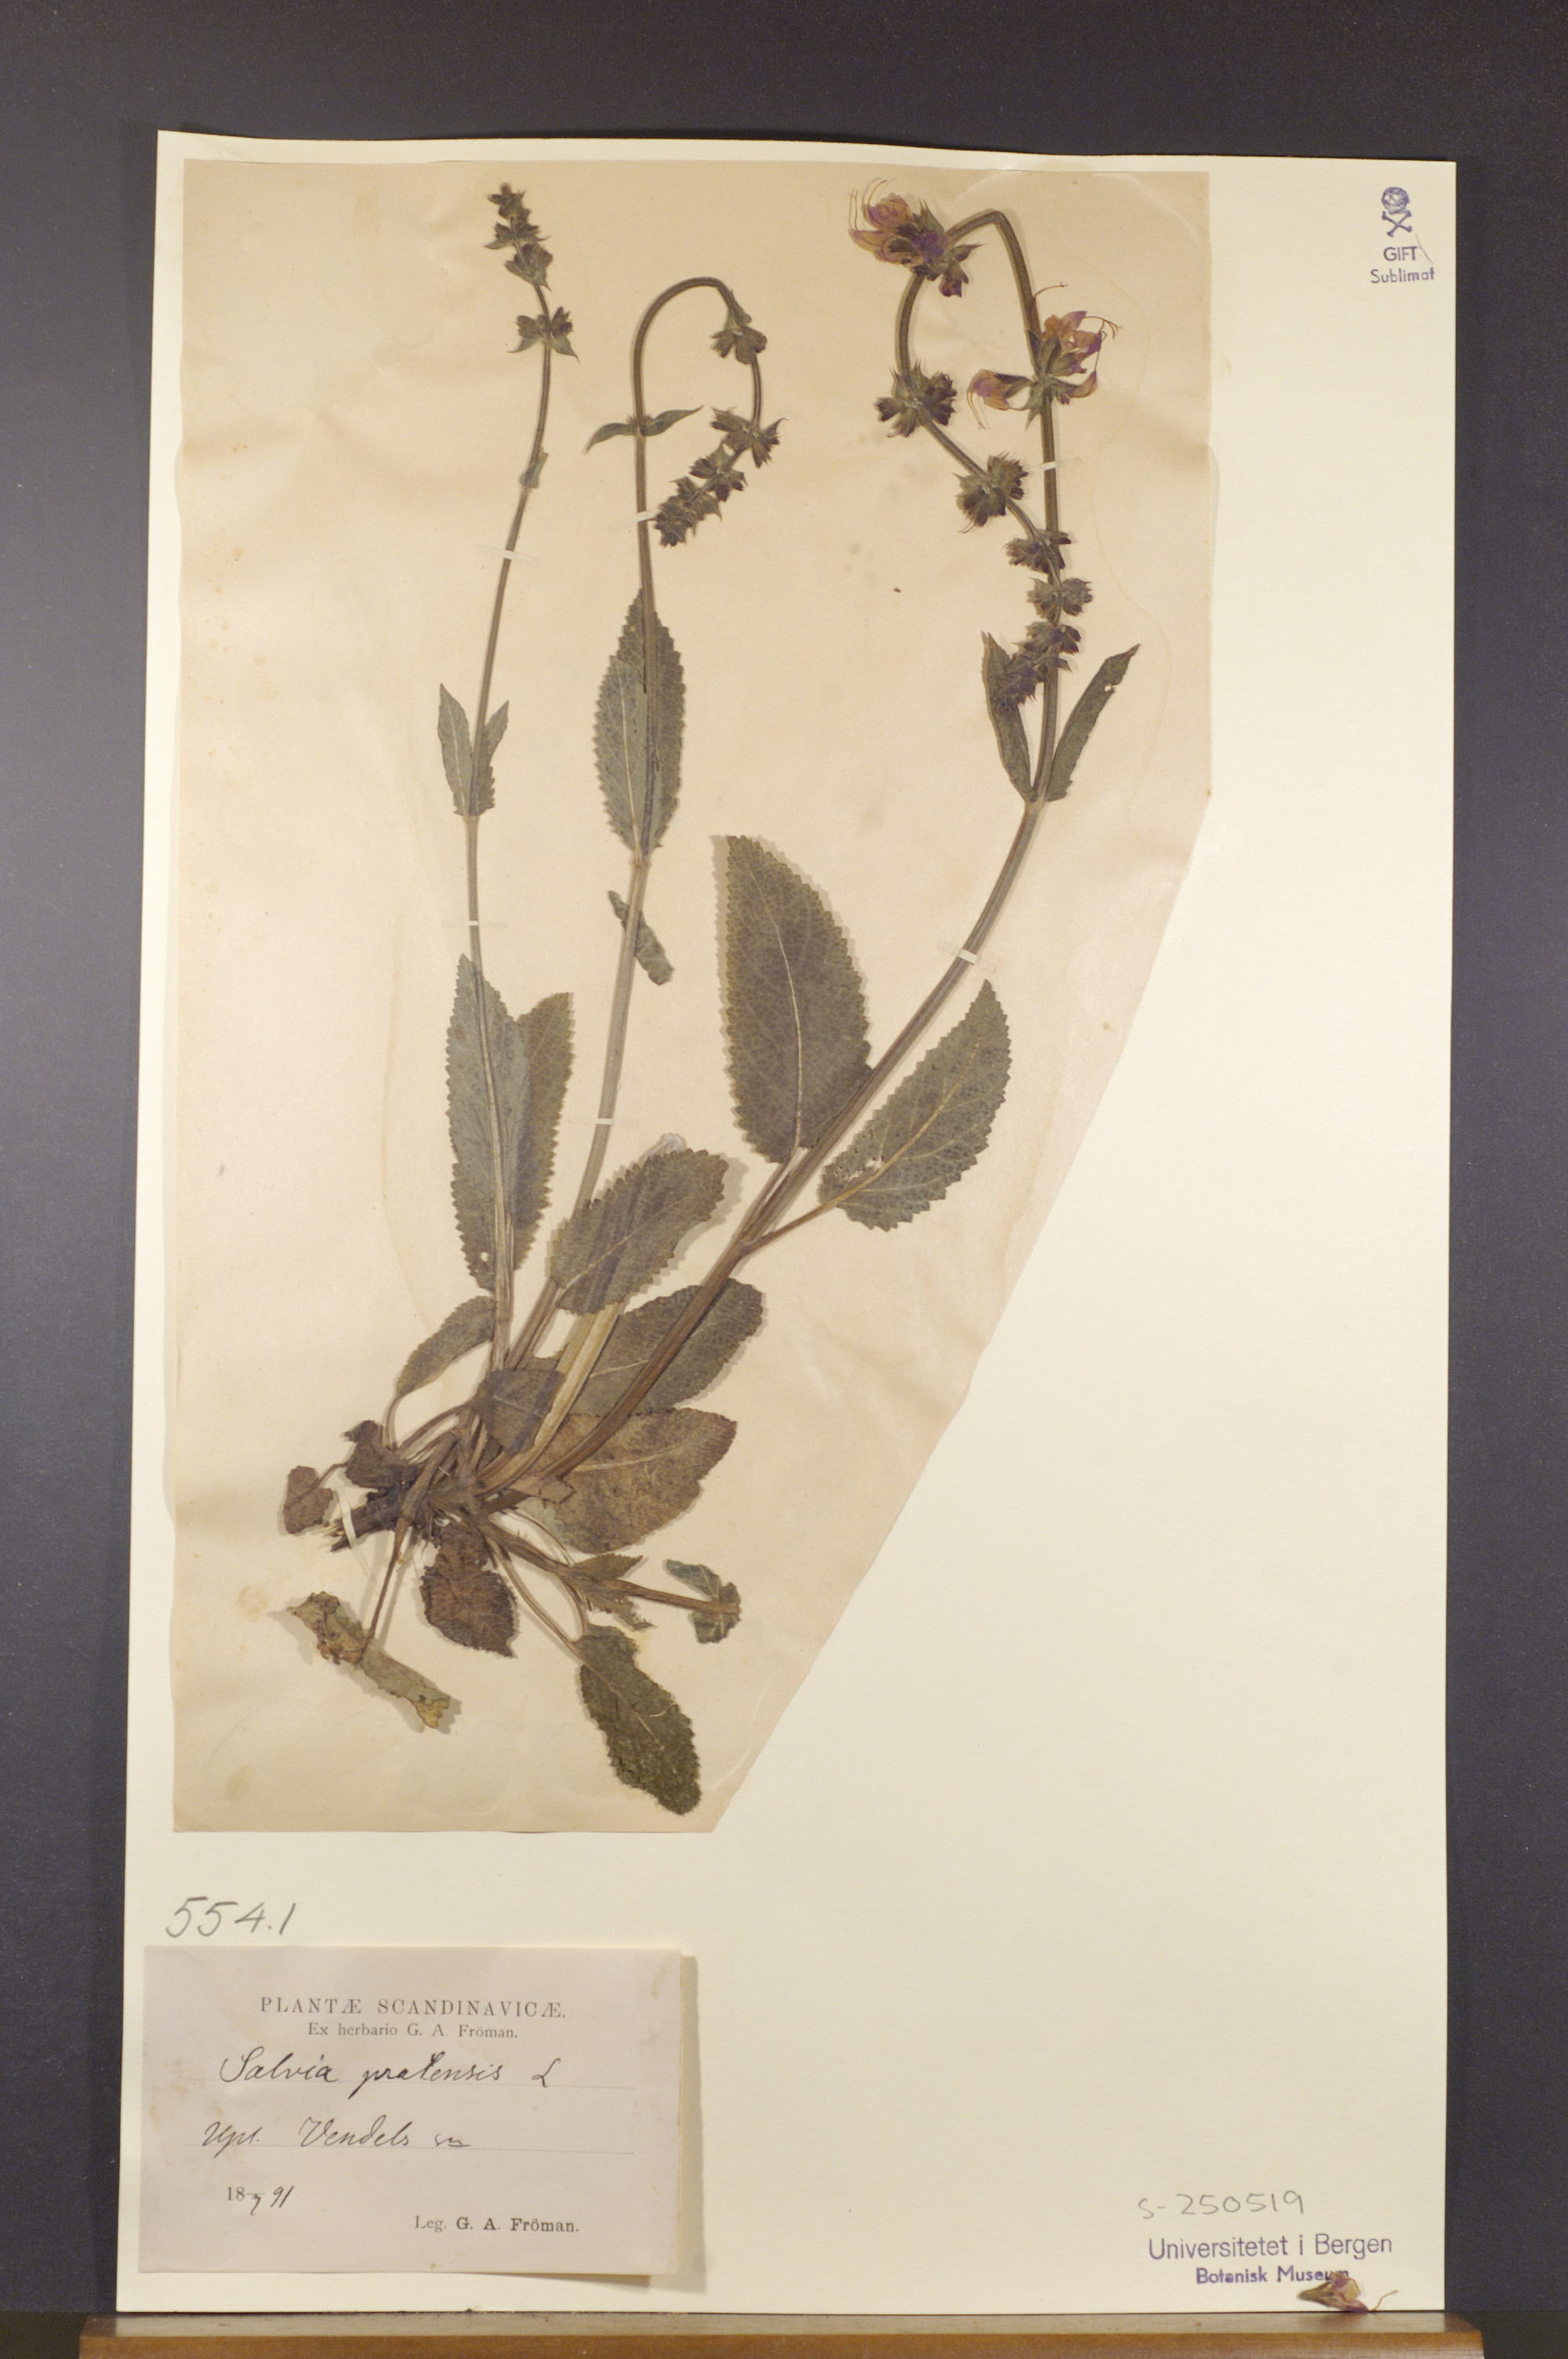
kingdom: Plantae
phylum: Tracheophyta
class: Magnoliopsida
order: Lamiales
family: Lamiaceae
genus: Salvia
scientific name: Salvia pratensis
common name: Meadow sage
